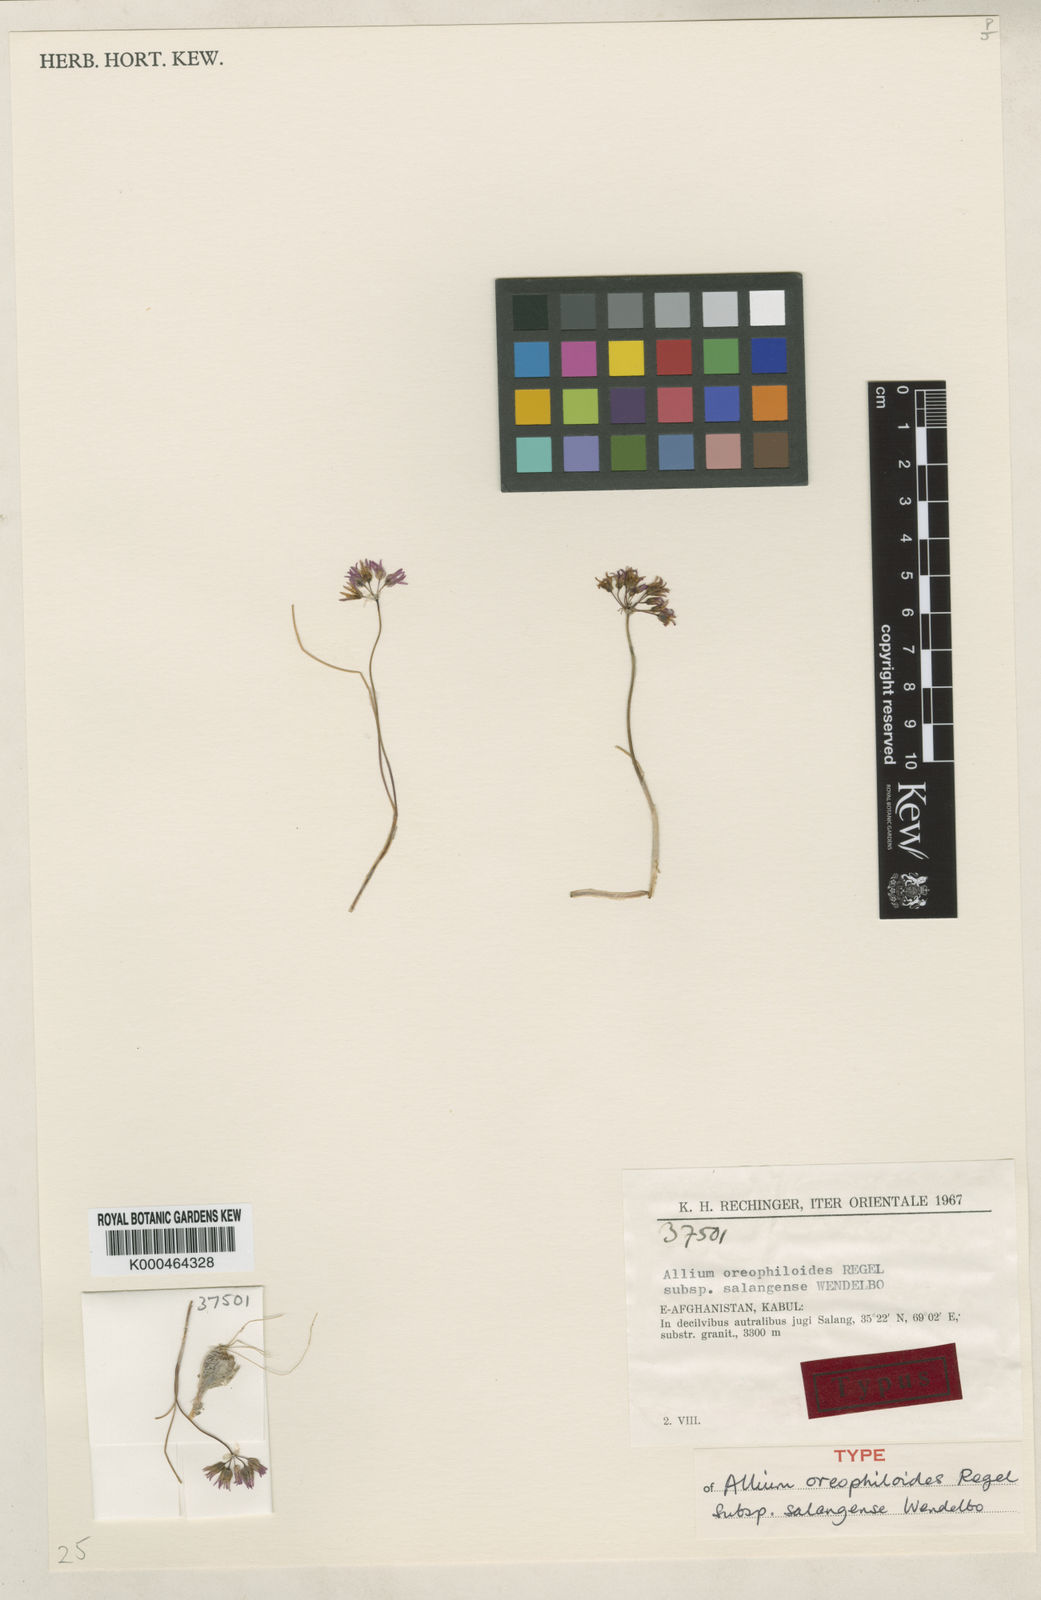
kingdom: Plantae
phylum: Tracheophyta
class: Liliopsida
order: Asparagales
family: Amaryllidaceae
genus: Allium
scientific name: Allium oreophiloides
